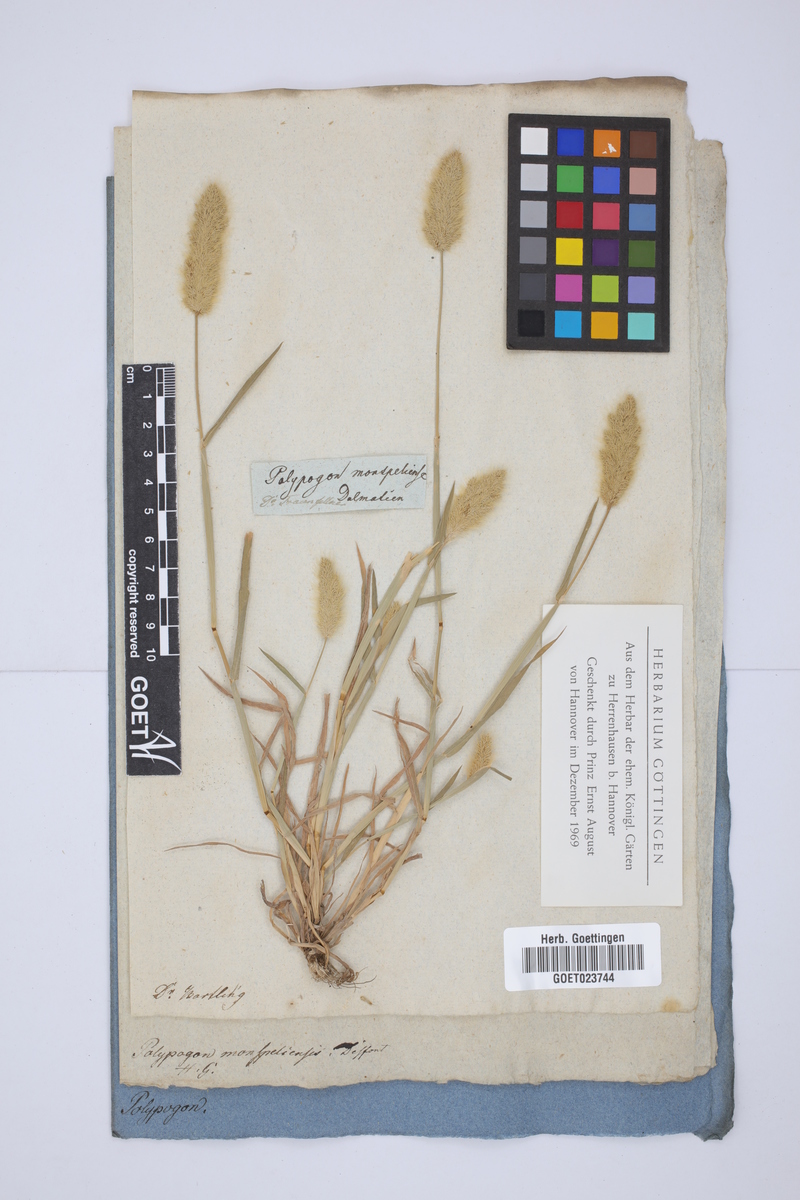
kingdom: Plantae
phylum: Tracheophyta
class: Liliopsida
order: Poales
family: Poaceae
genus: Polypogon
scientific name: Polypogon monspeliensis
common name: Annual rabbitsfoot grass
